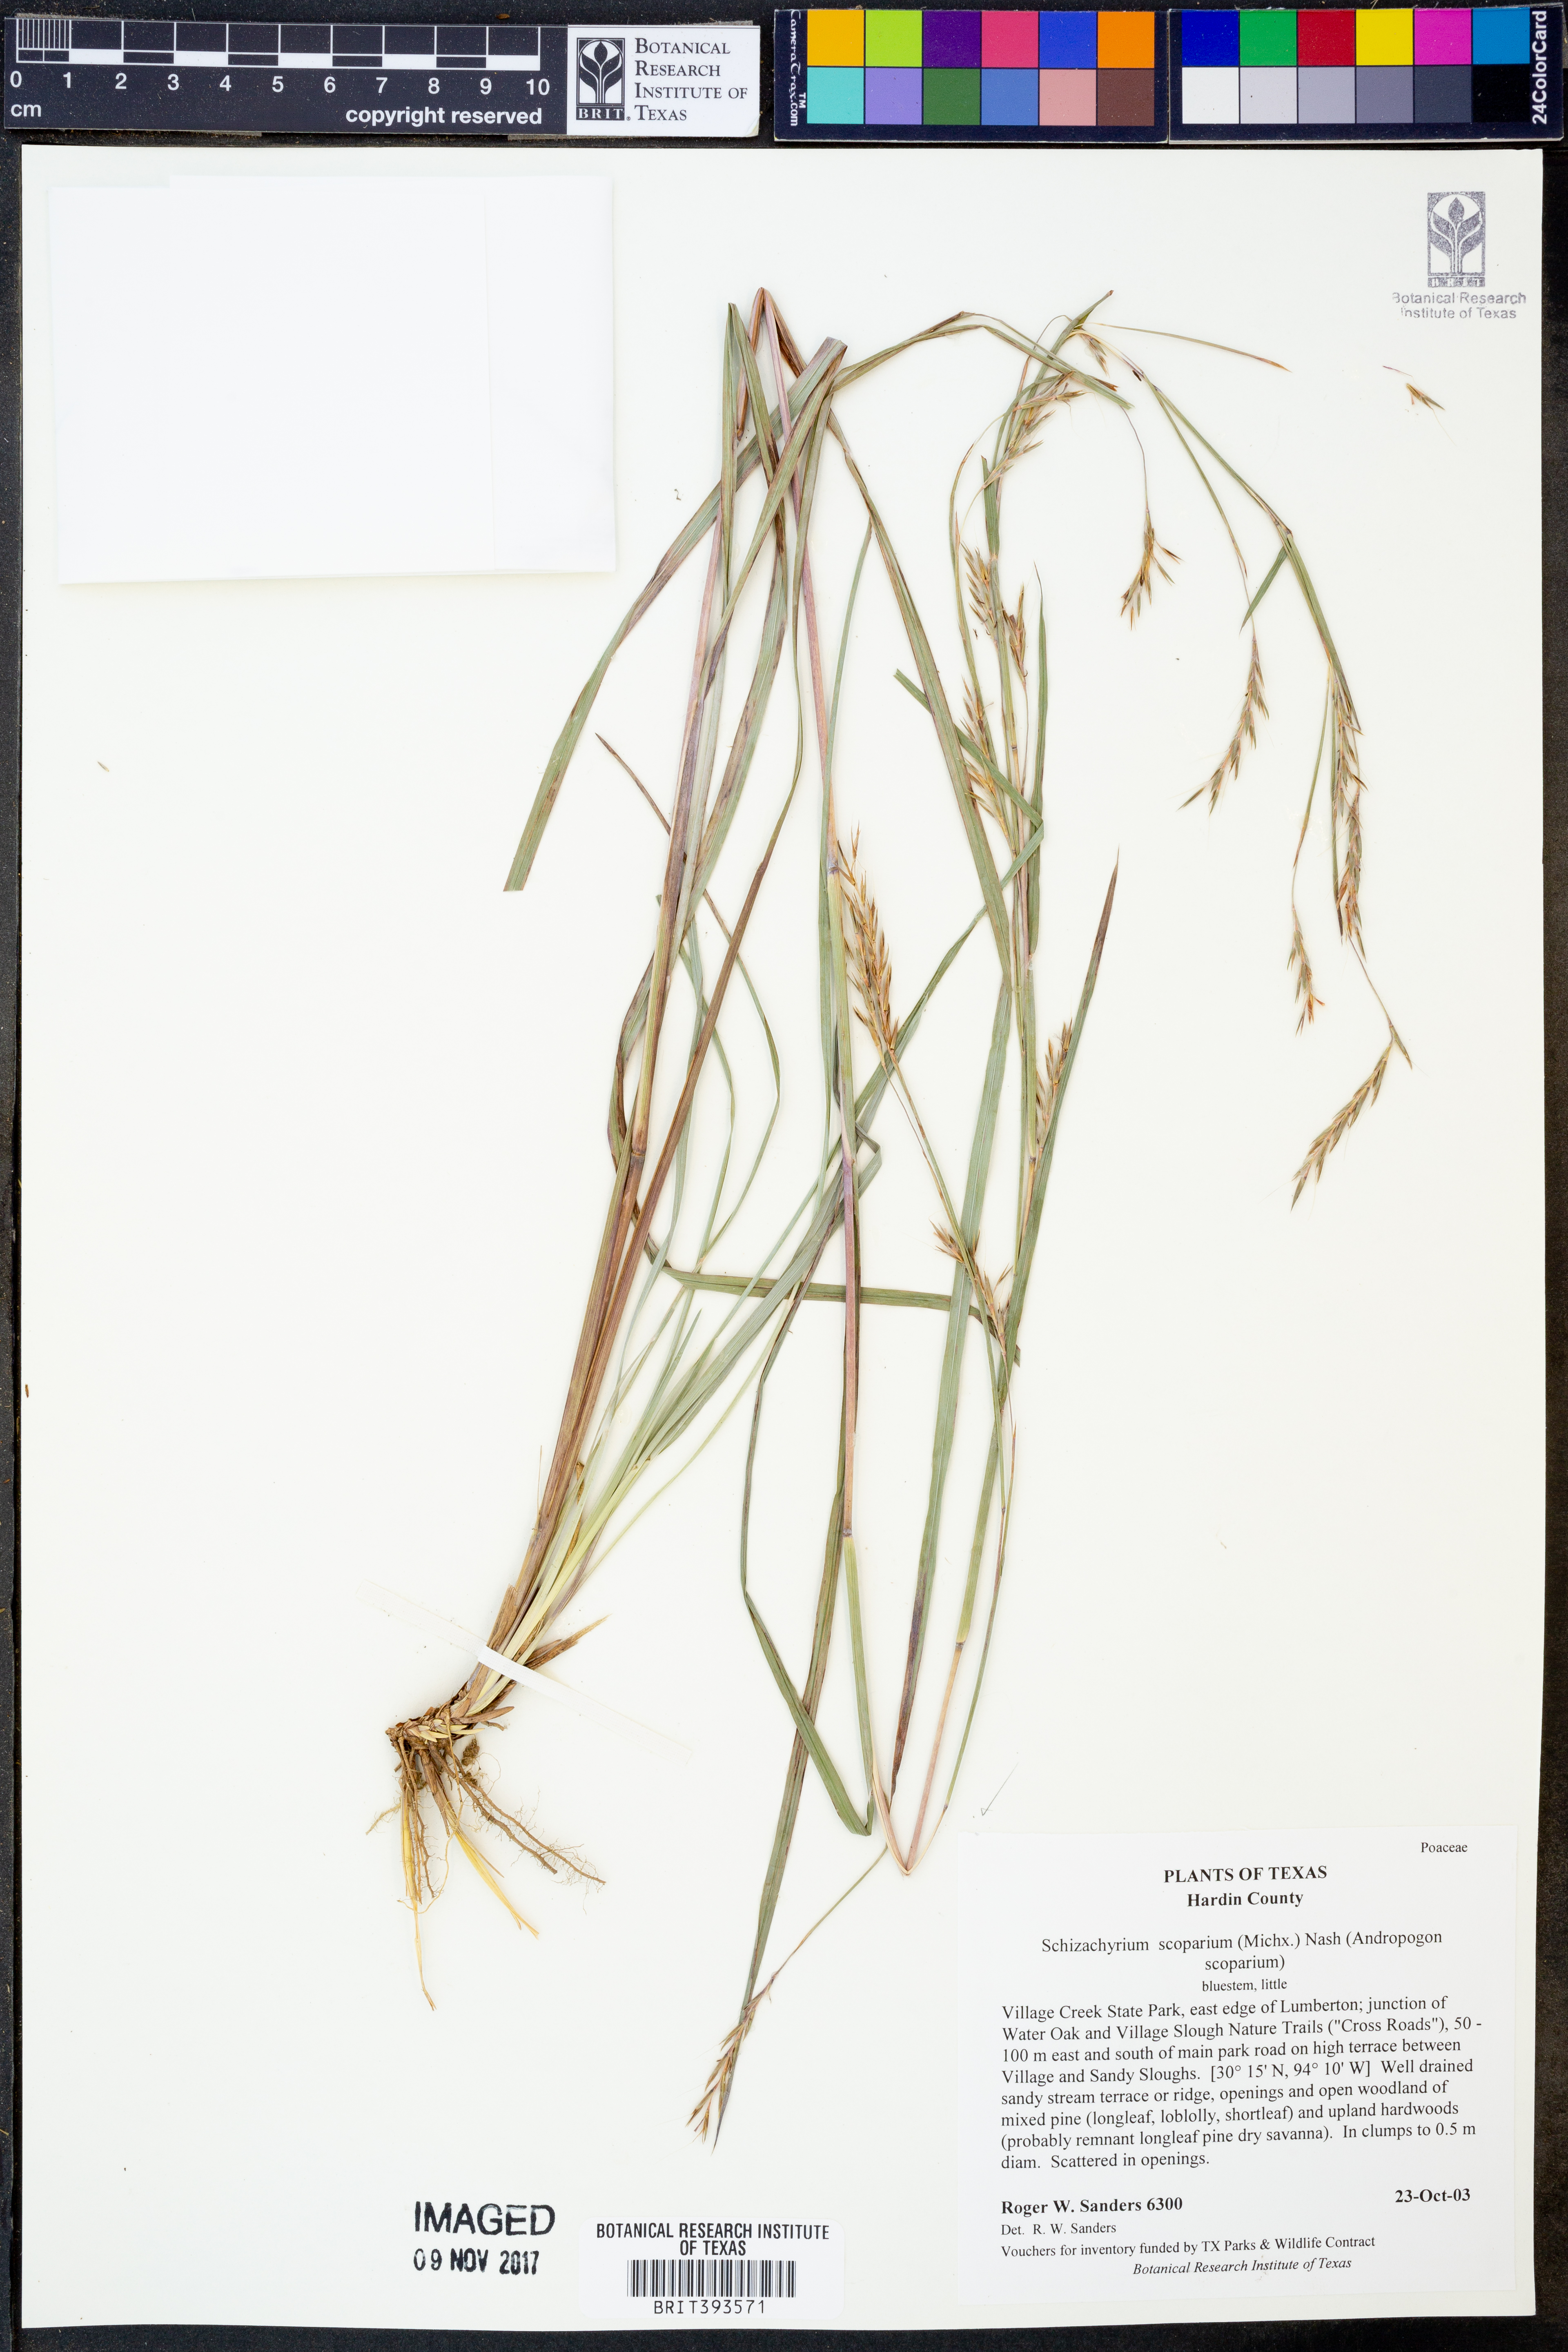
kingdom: Plantae
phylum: Tracheophyta
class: Liliopsida
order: Poales
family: Poaceae
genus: Schizachyrium
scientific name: Schizachyrium scoparium
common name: Little bluestem
